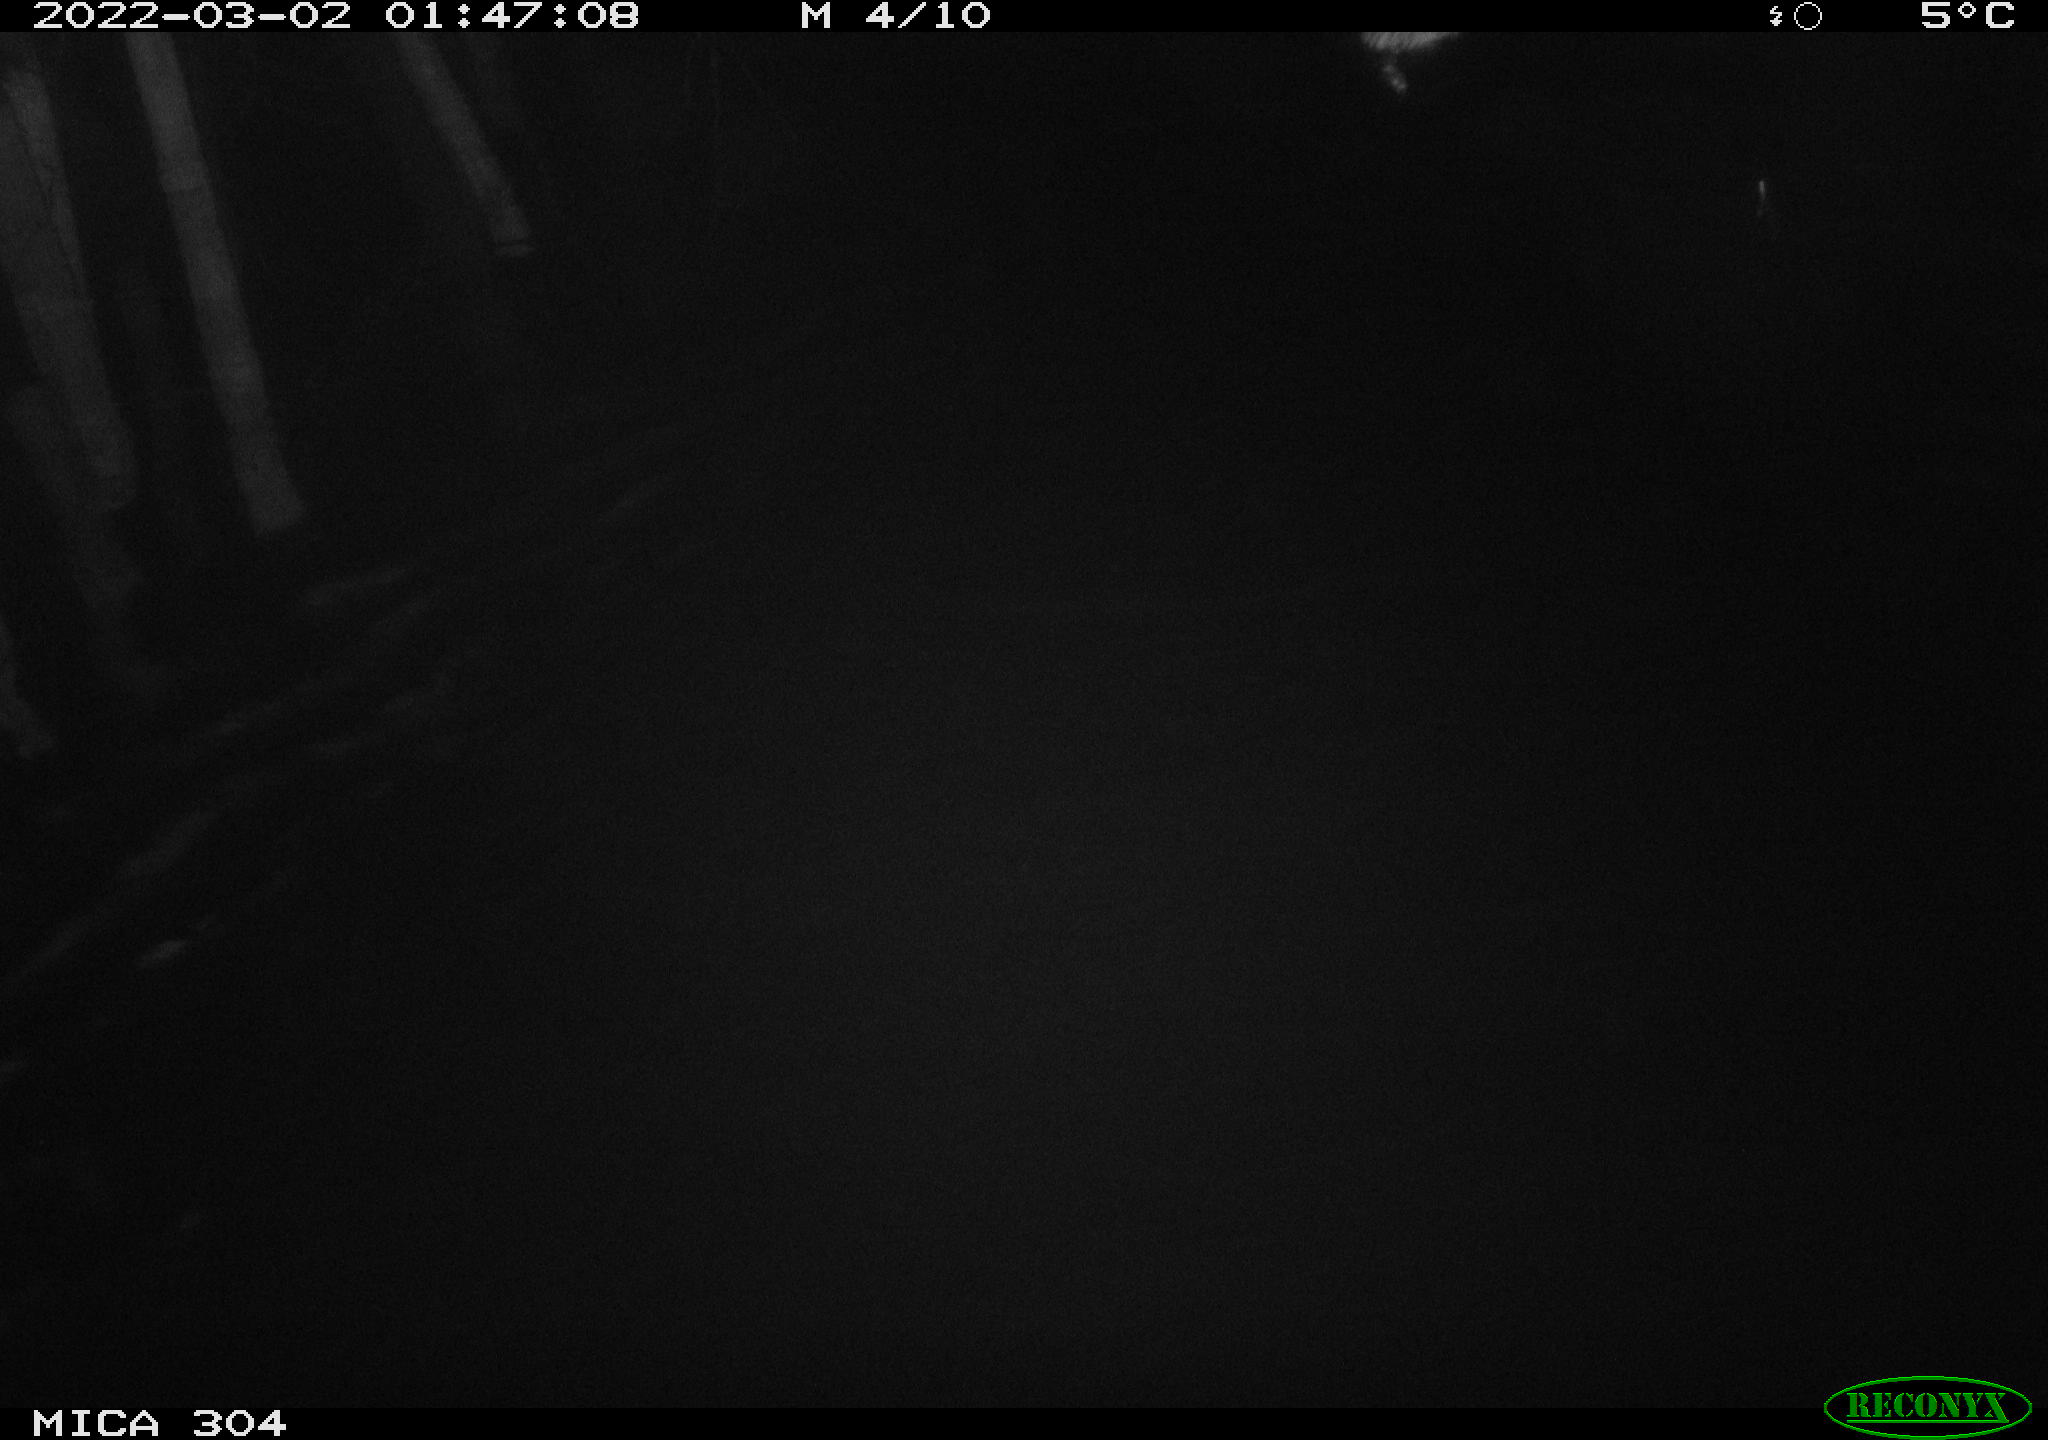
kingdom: Animalia
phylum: Chordata
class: Mammalia
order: Rodentia
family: Cricetidae
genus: Ondatra
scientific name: Ondatra zibethicus
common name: Muskrat
